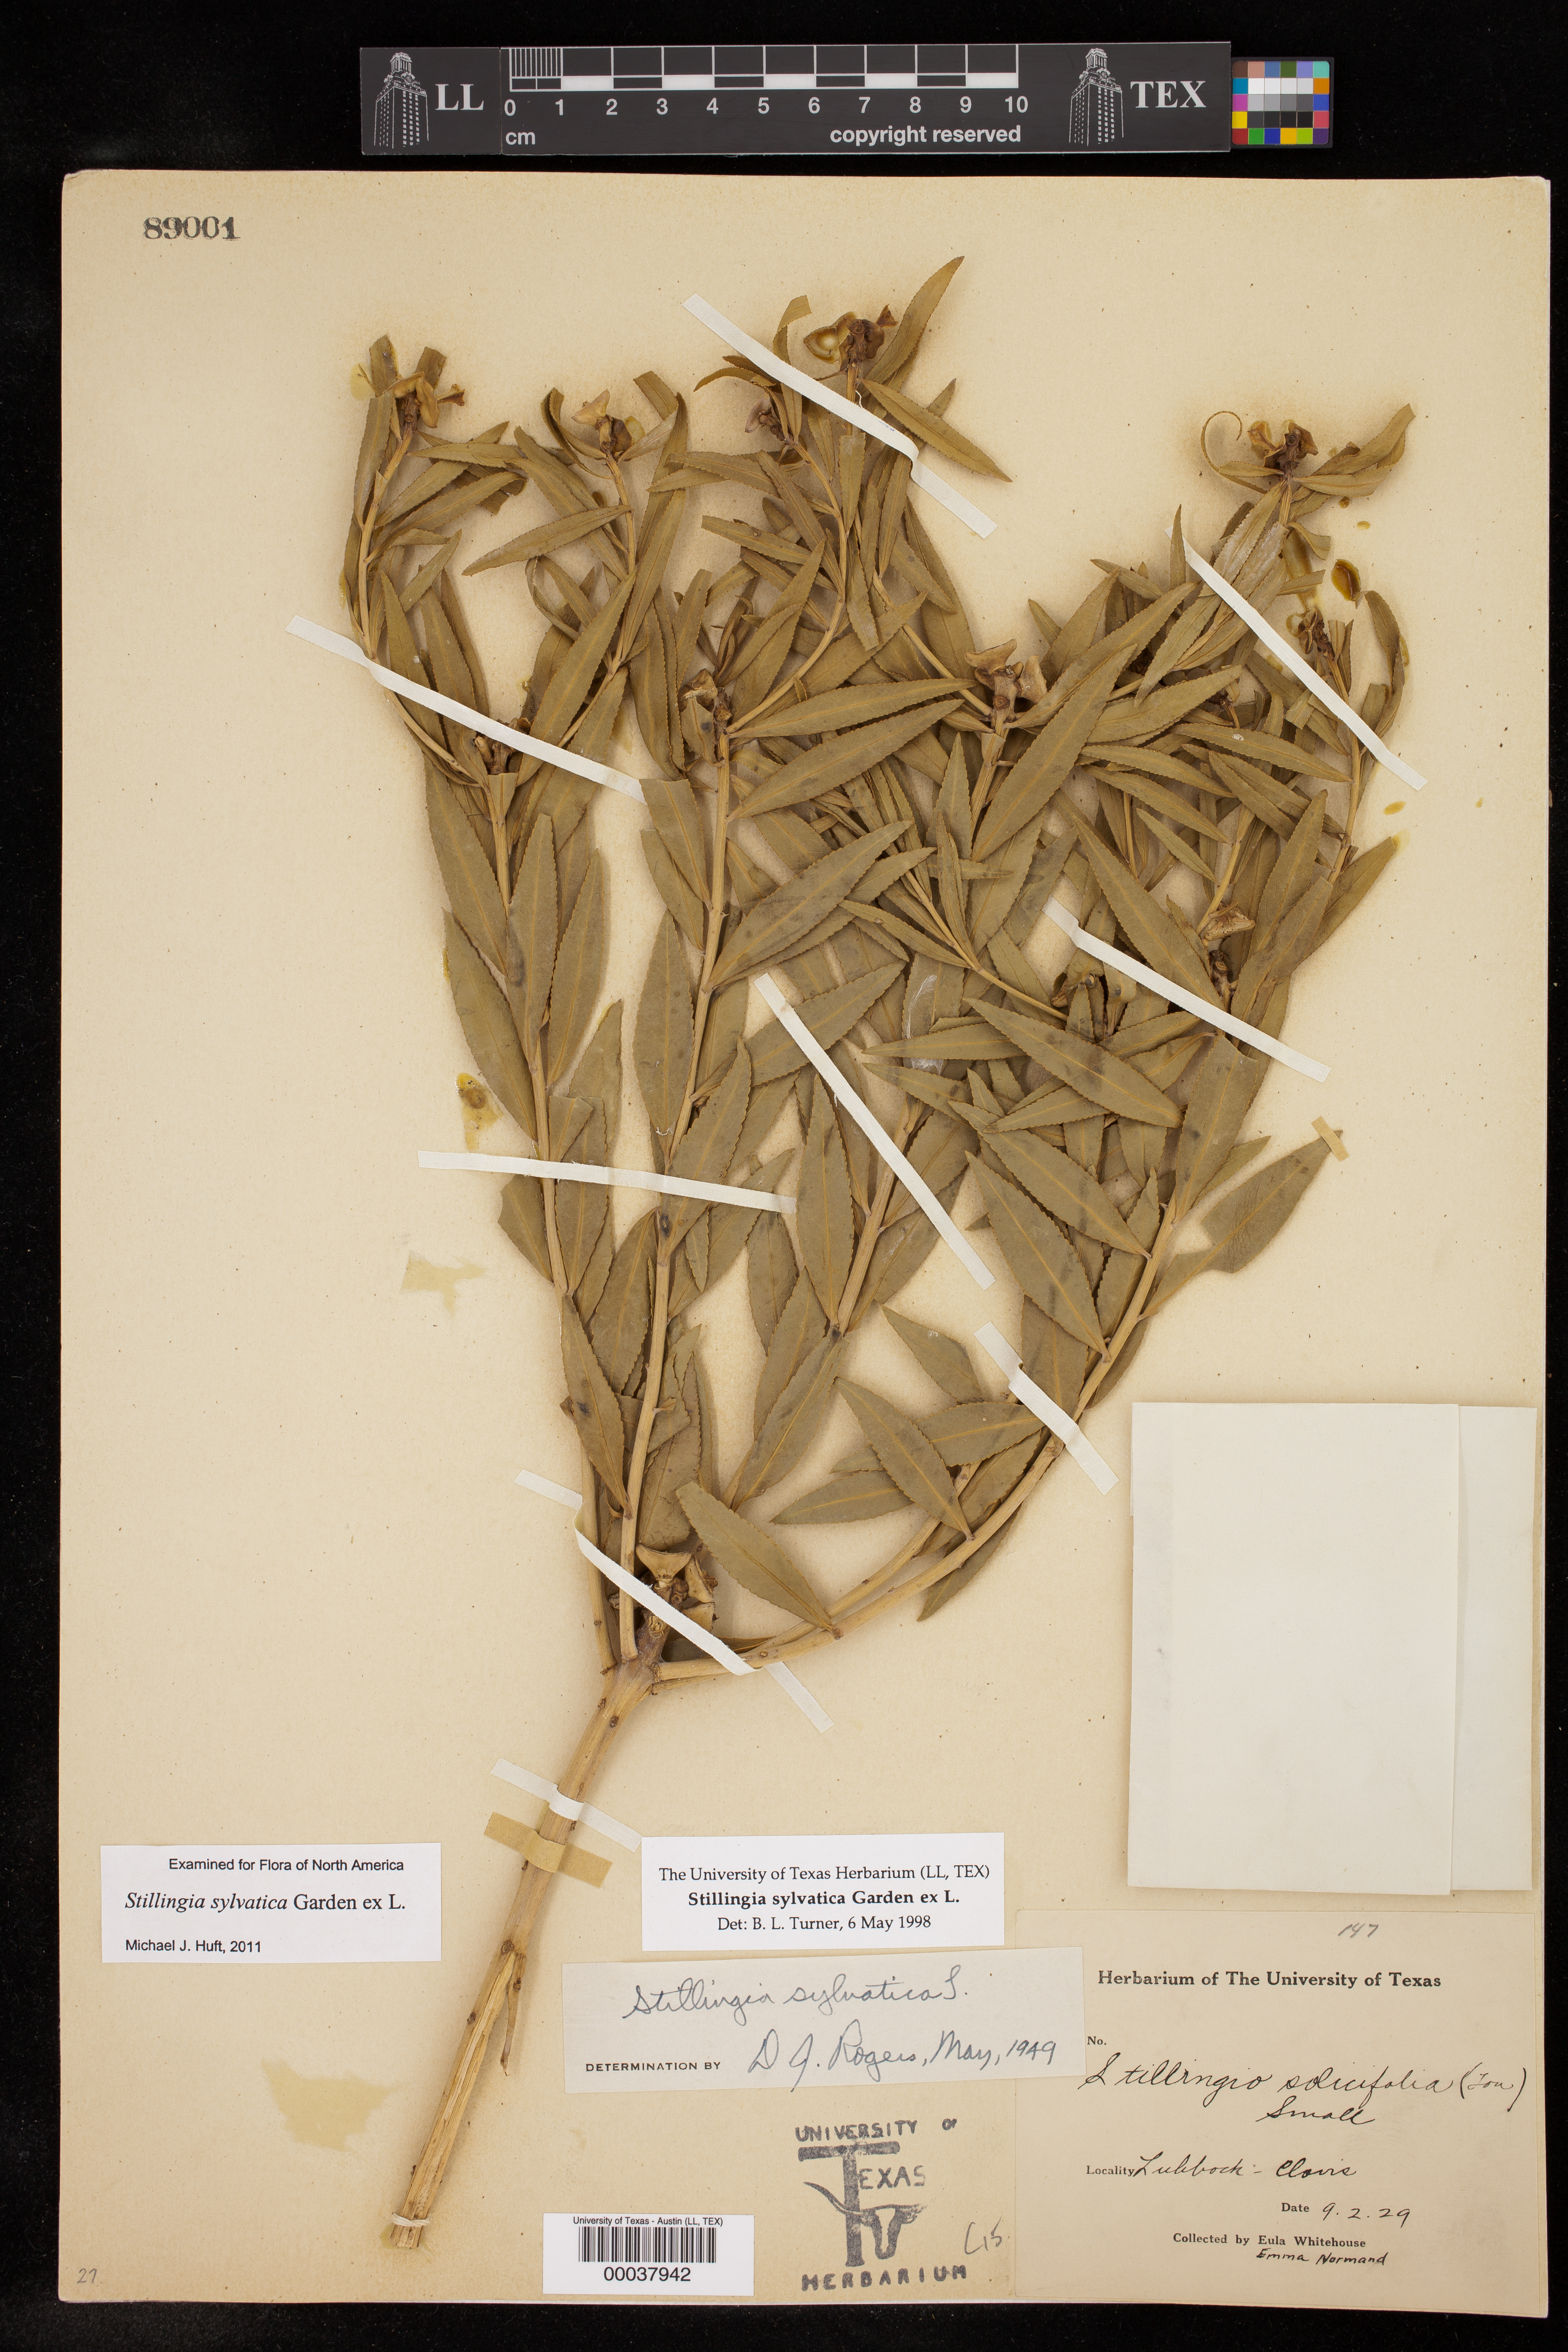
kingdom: Plantae
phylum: Tracheophyta
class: Magnoliopsida
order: Malpighiales
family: Euphorbiaceae
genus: Stillingia
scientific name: Stillingia sylvatica
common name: Queen's-delight
